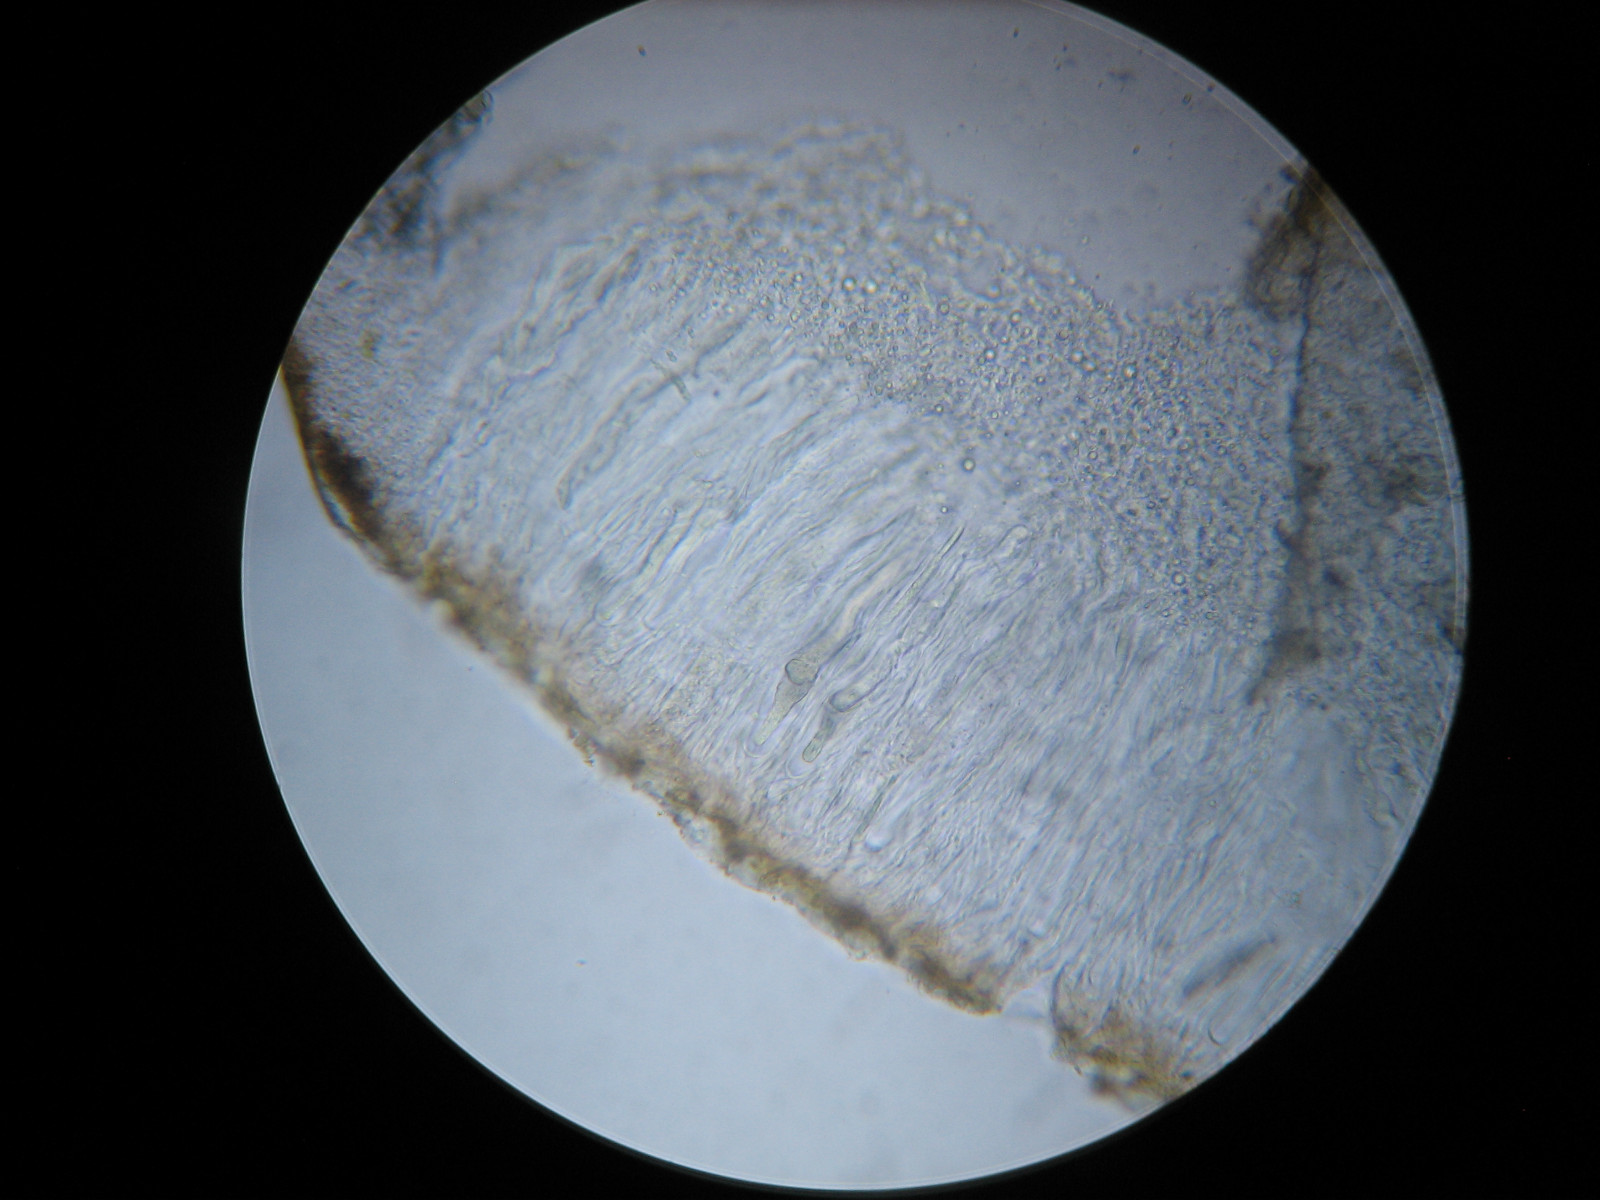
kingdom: Fungi
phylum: Ascomycota
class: Lecanoromycetes
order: Acarosporales
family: Acarosporaceae
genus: Acarospora
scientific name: Acarospora
